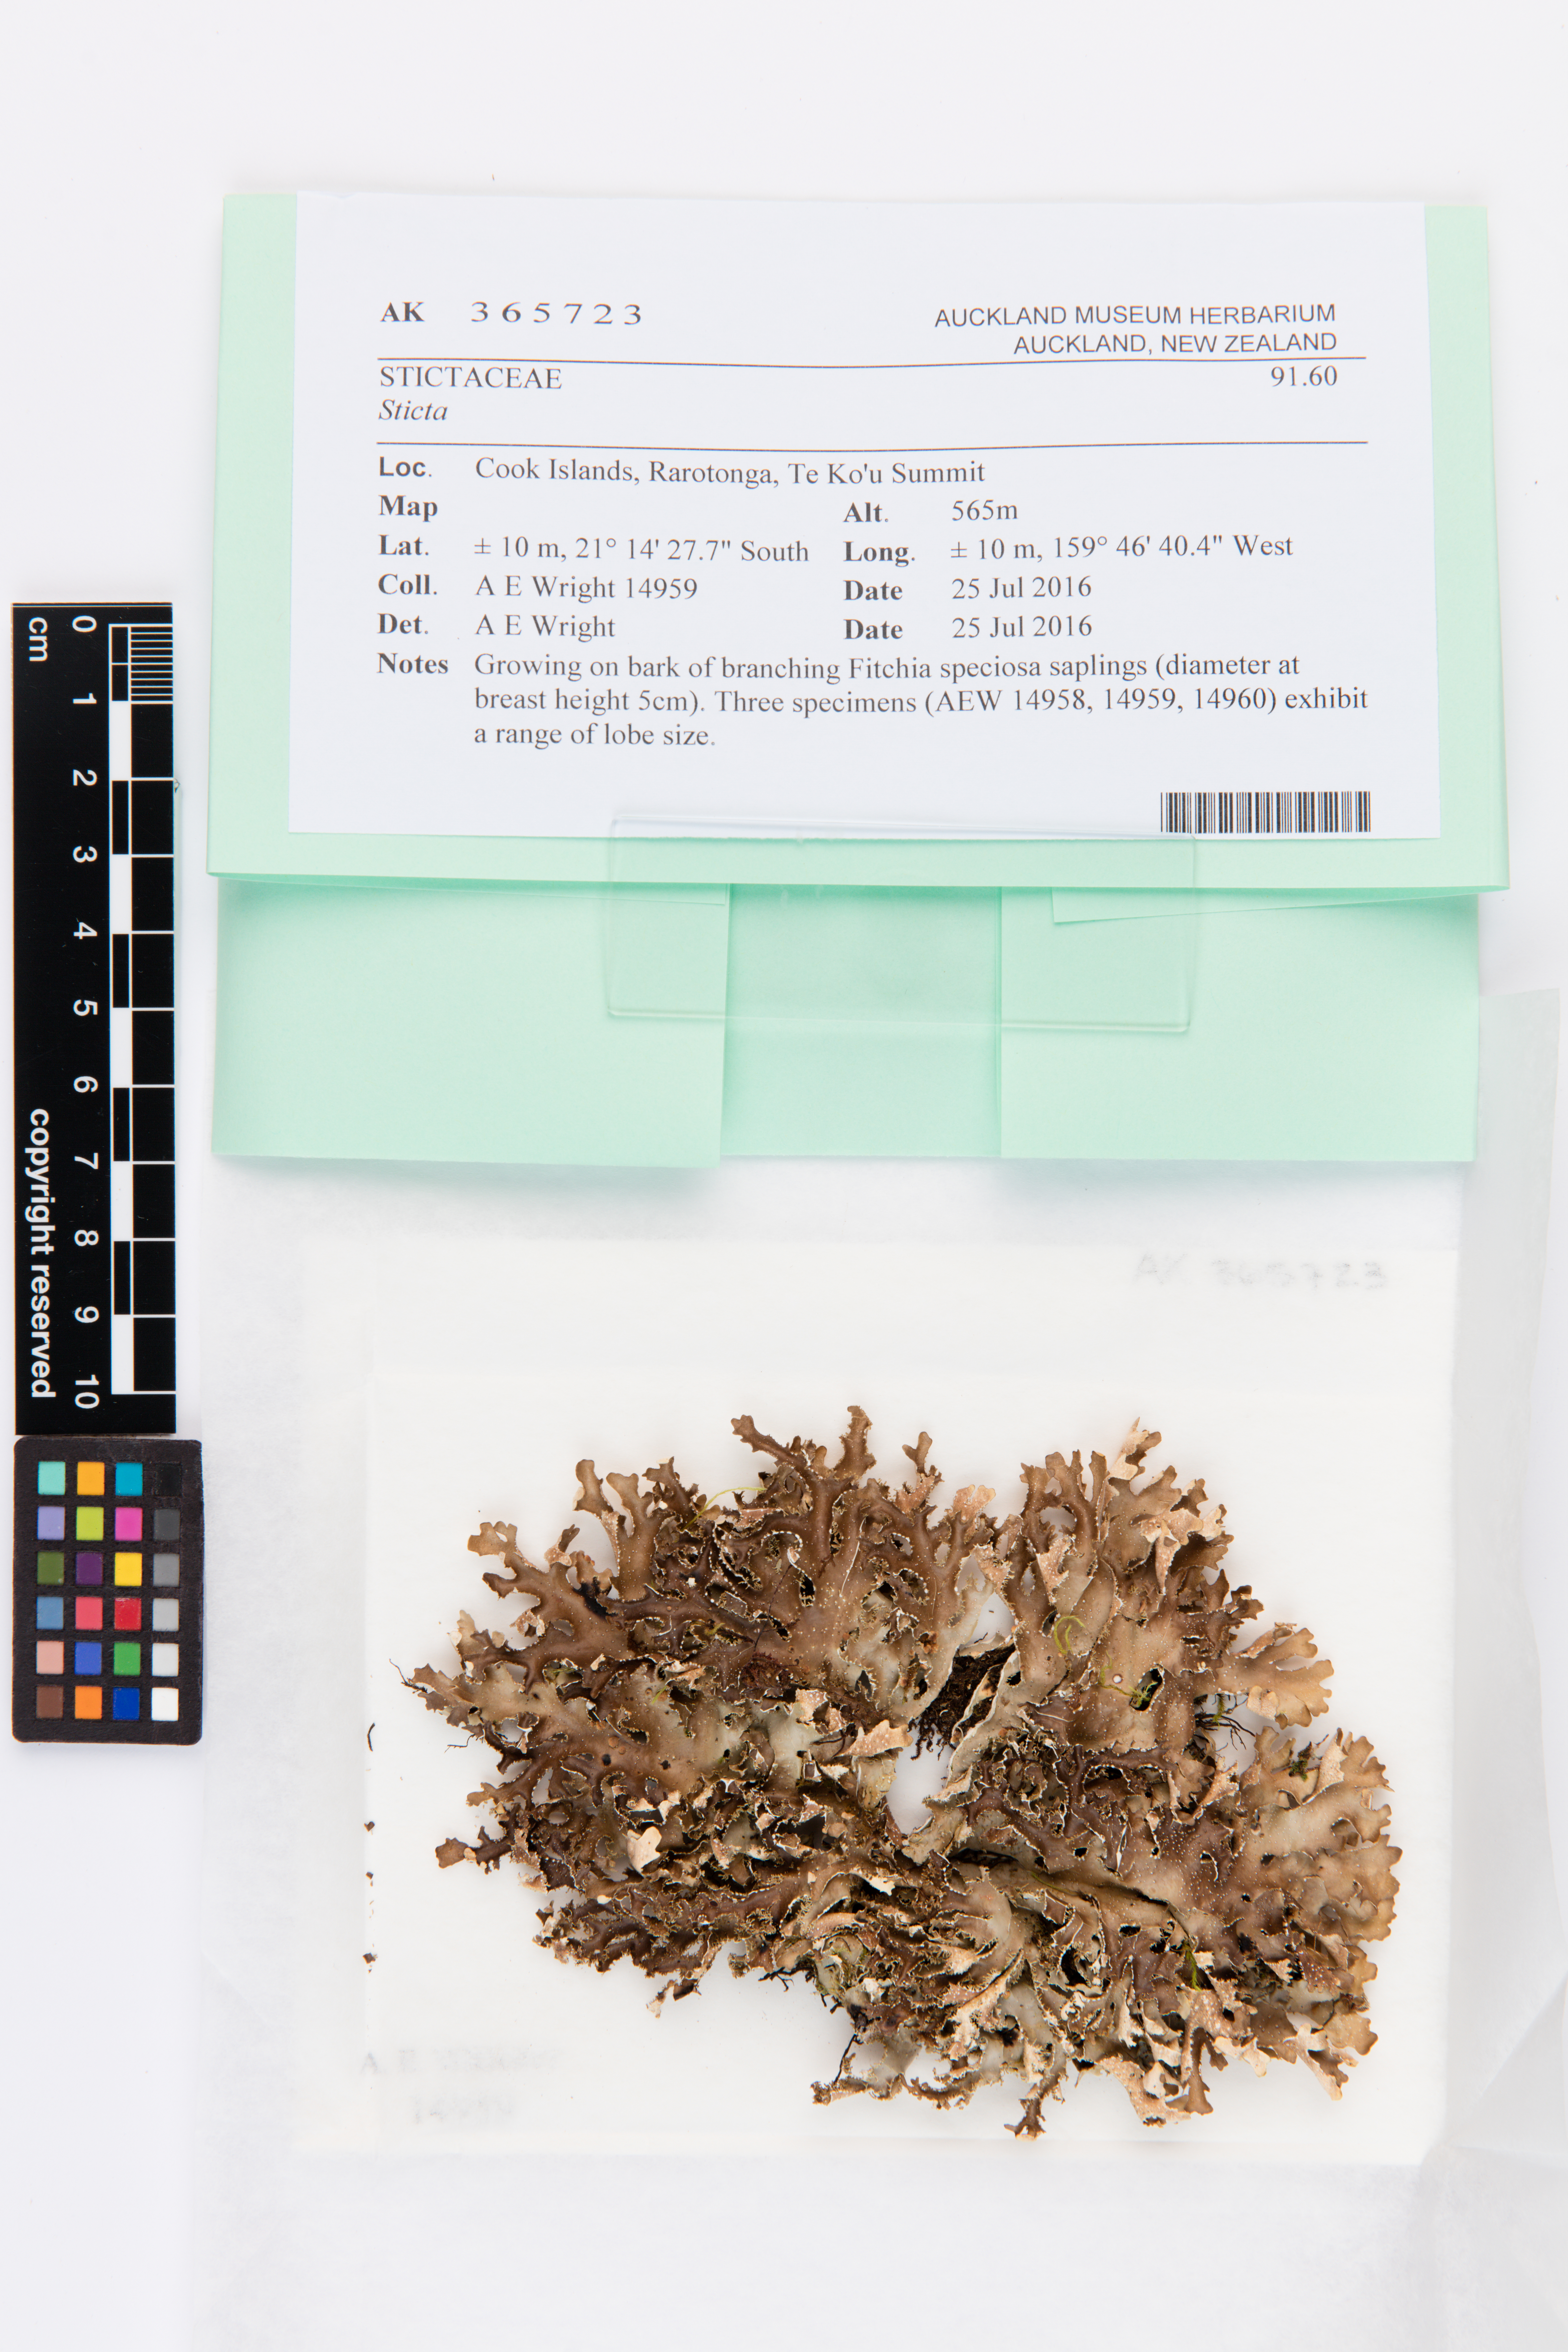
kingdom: Fungi
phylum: Ascomycota
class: Lecanoromycetes
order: Peltigerales
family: Lobariaceae
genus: Sticta
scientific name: Sticta
